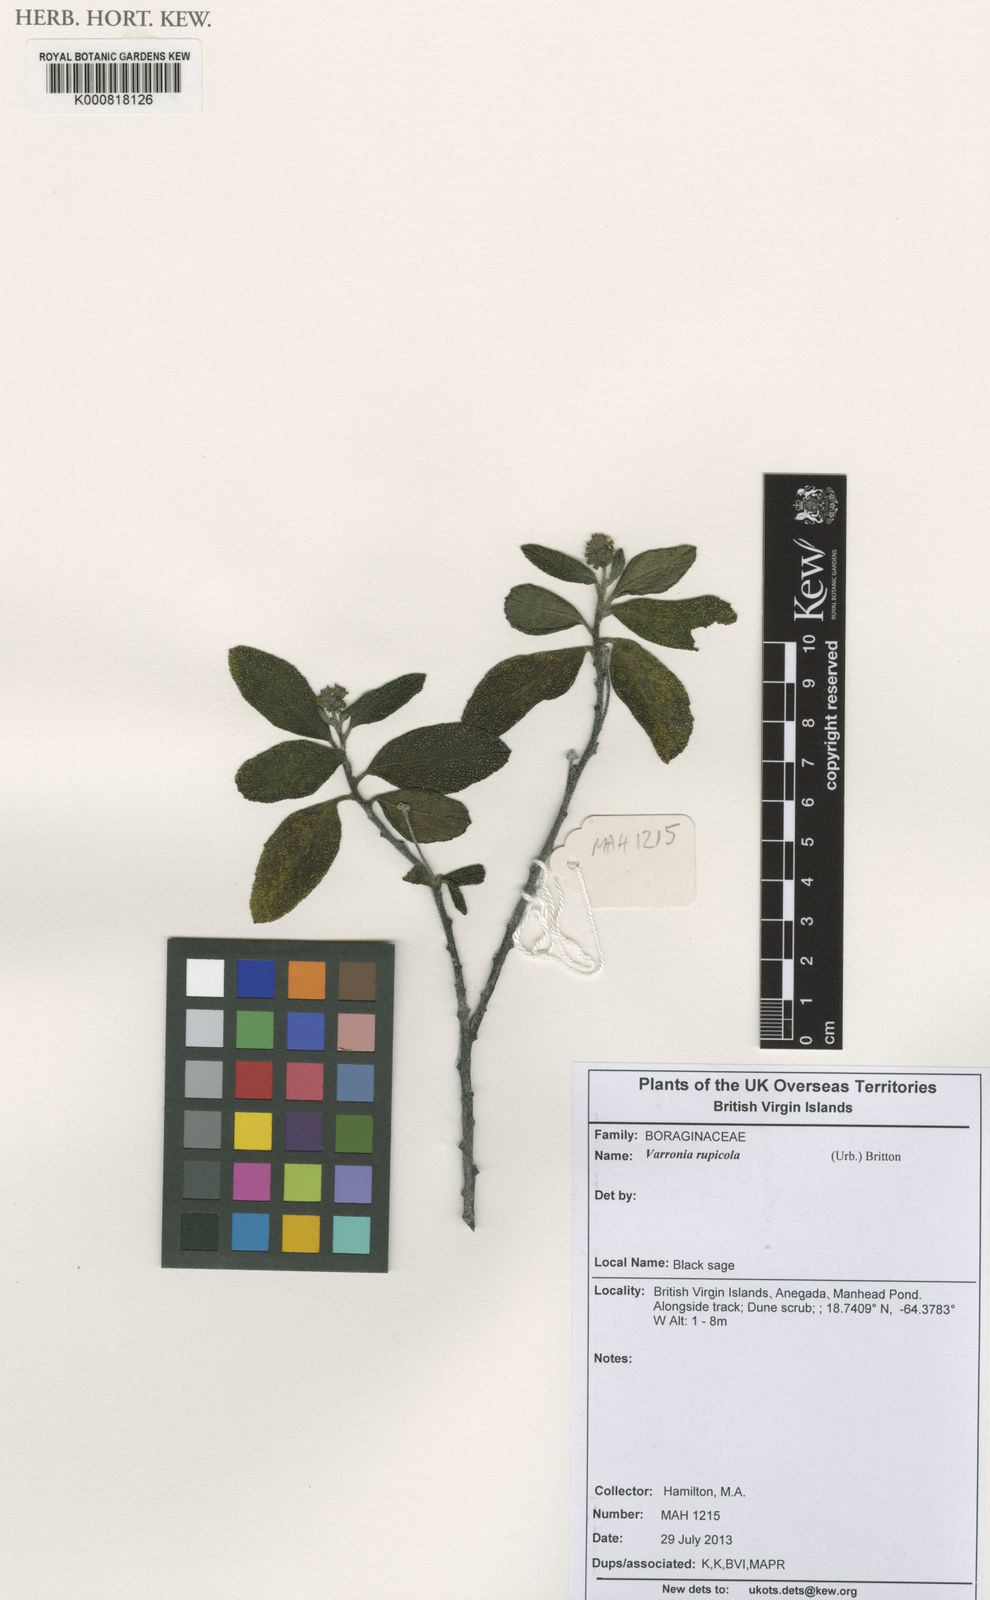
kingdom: Plantae
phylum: Tracheophyta
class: Magnoliopsida
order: Boraginales
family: Cordiaceae
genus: Varronia
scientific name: Varronia rupicola
